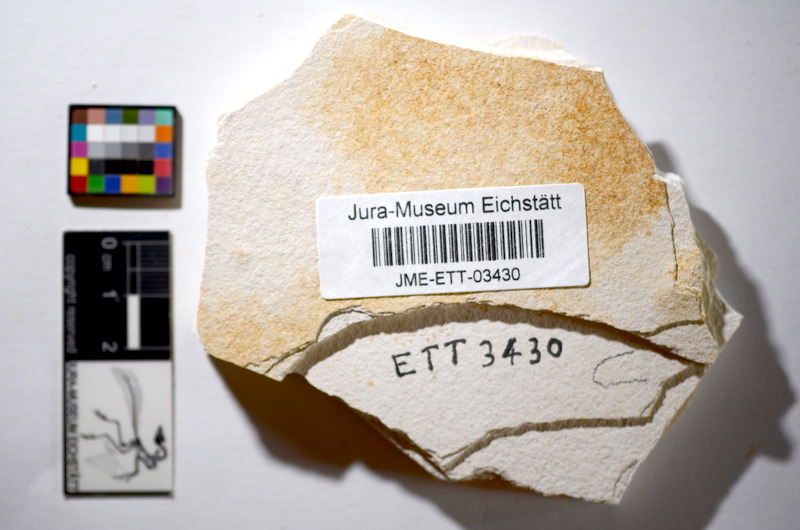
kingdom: Animalia
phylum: Chordata
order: Salmoniformes
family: Orthogonikleithridae
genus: Orthogonikleithrus
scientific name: Orthogonikleithrus hoelli
